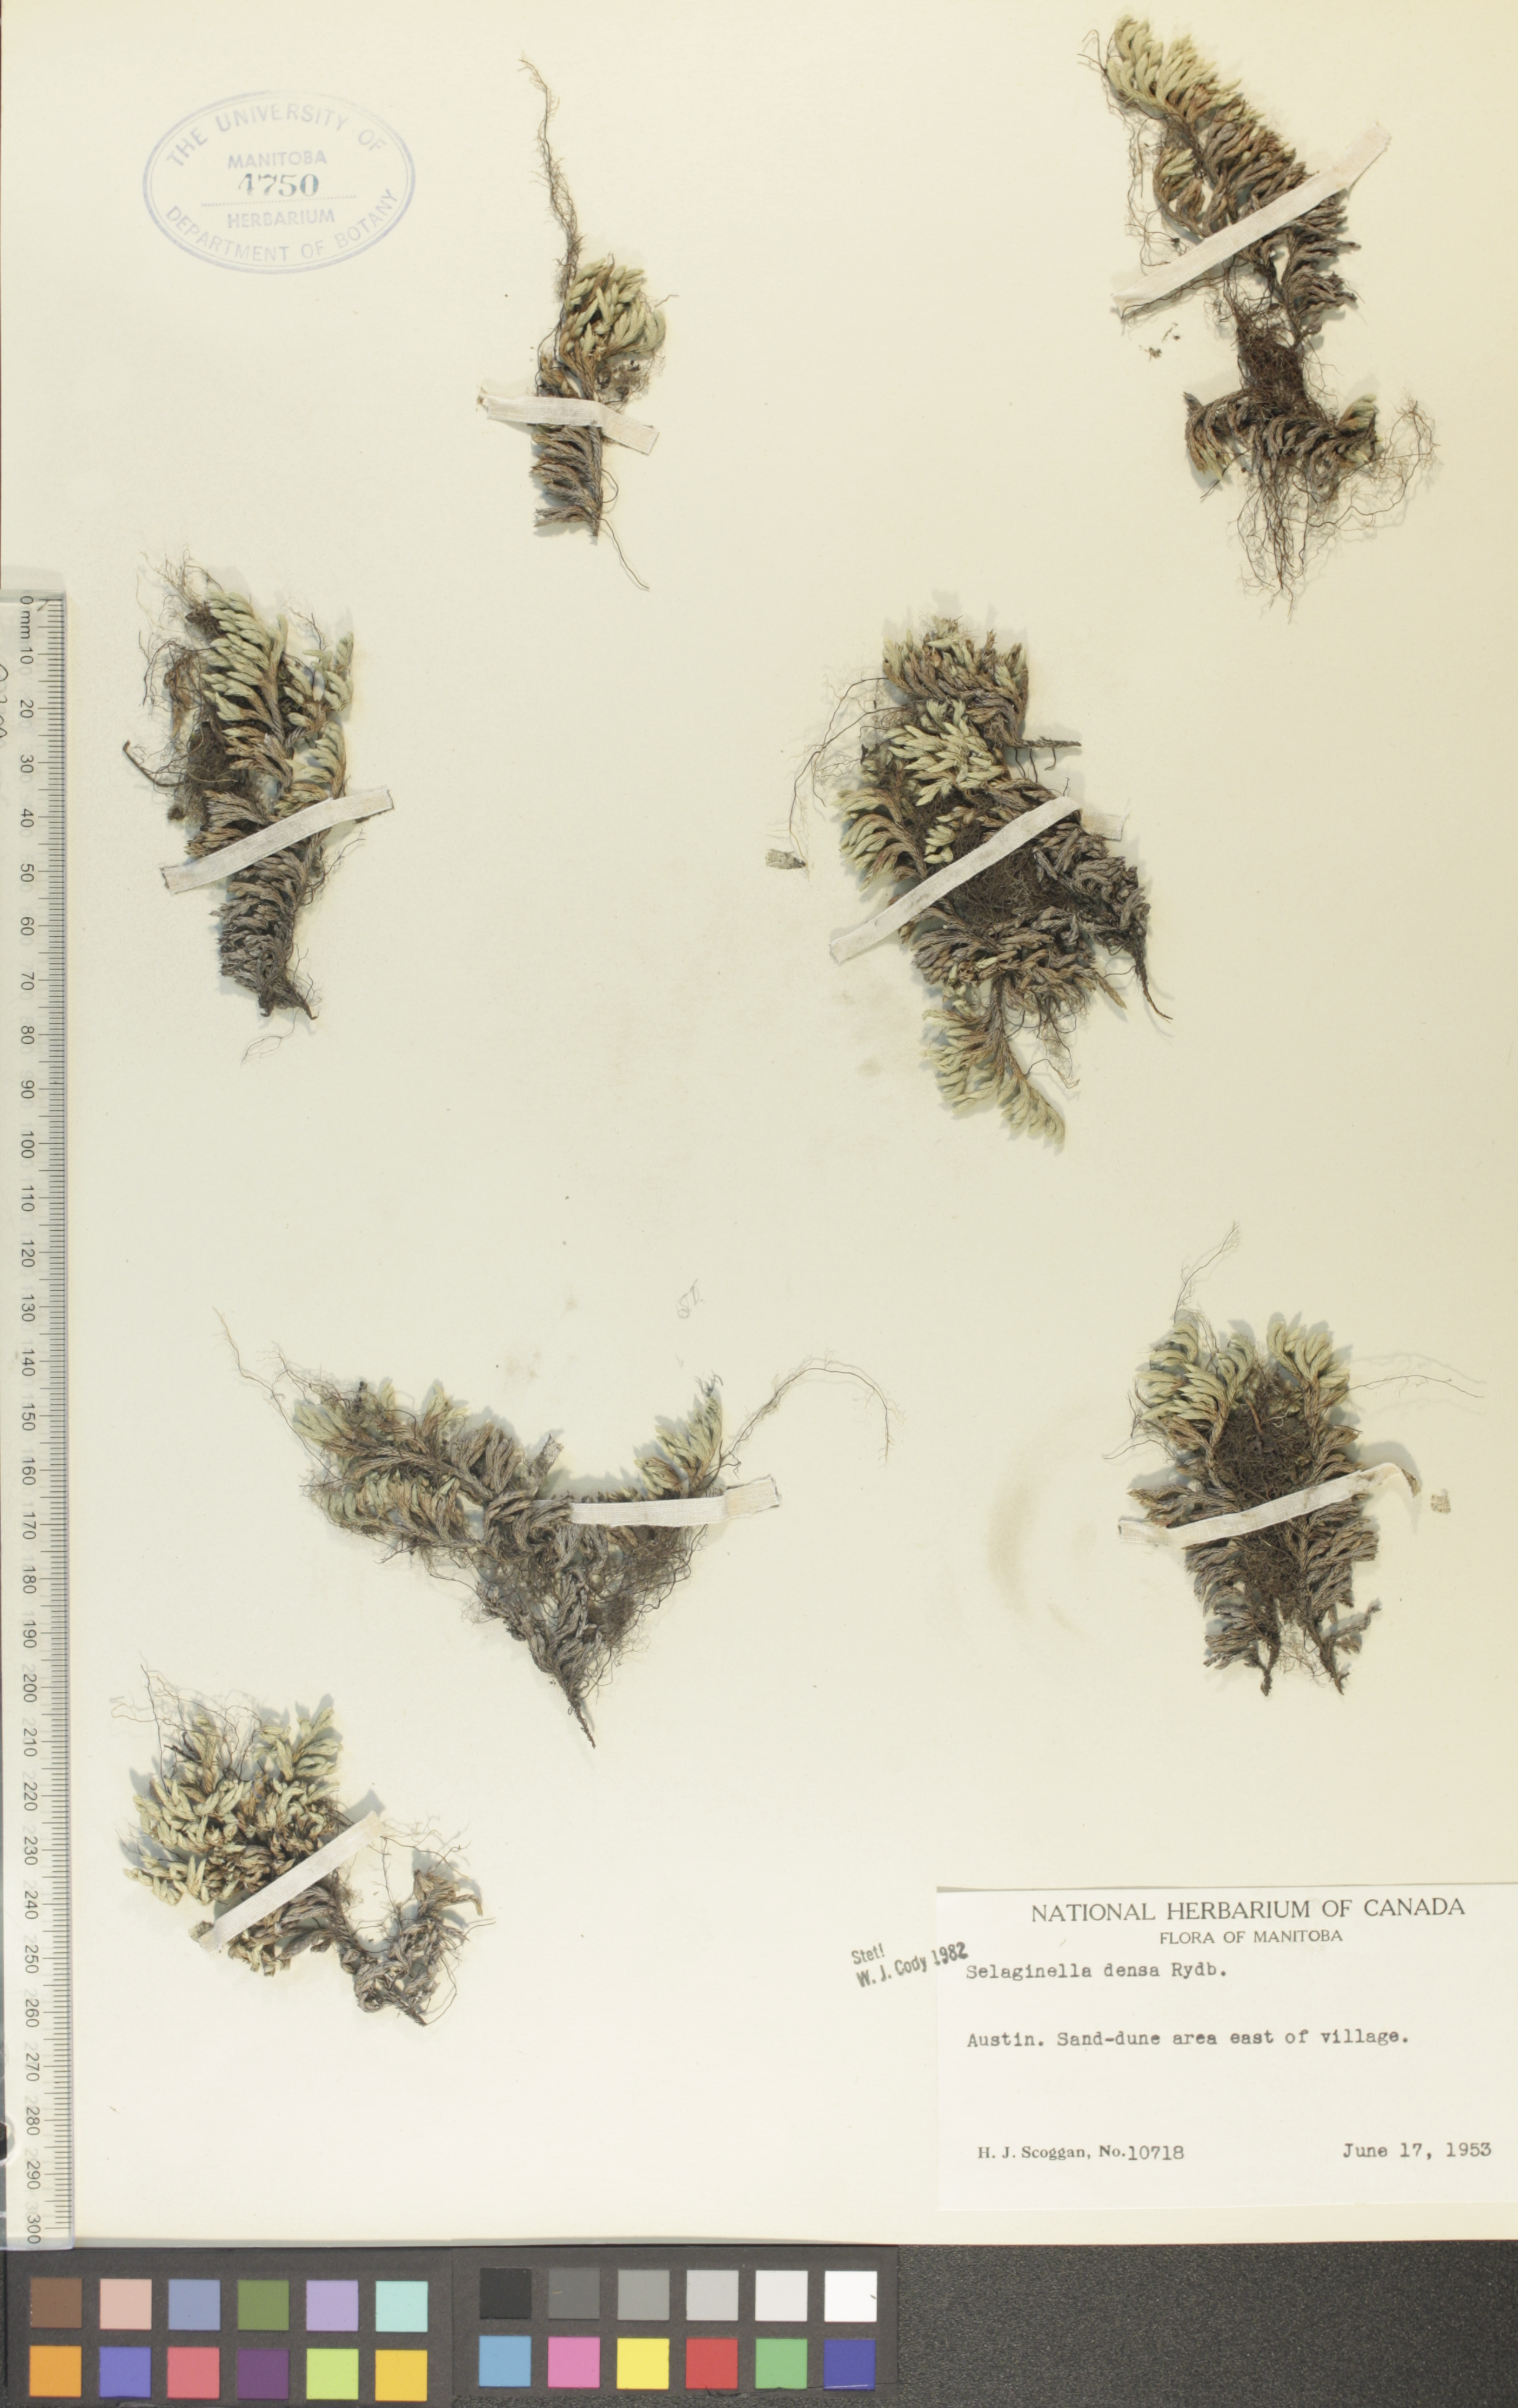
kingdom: Plantae
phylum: Tracheophyta
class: Lycopodiopsida
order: Selaginellales
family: Selaginellaceae
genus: Selaginella
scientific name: Selaginella densa
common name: Mountain spike-moss
